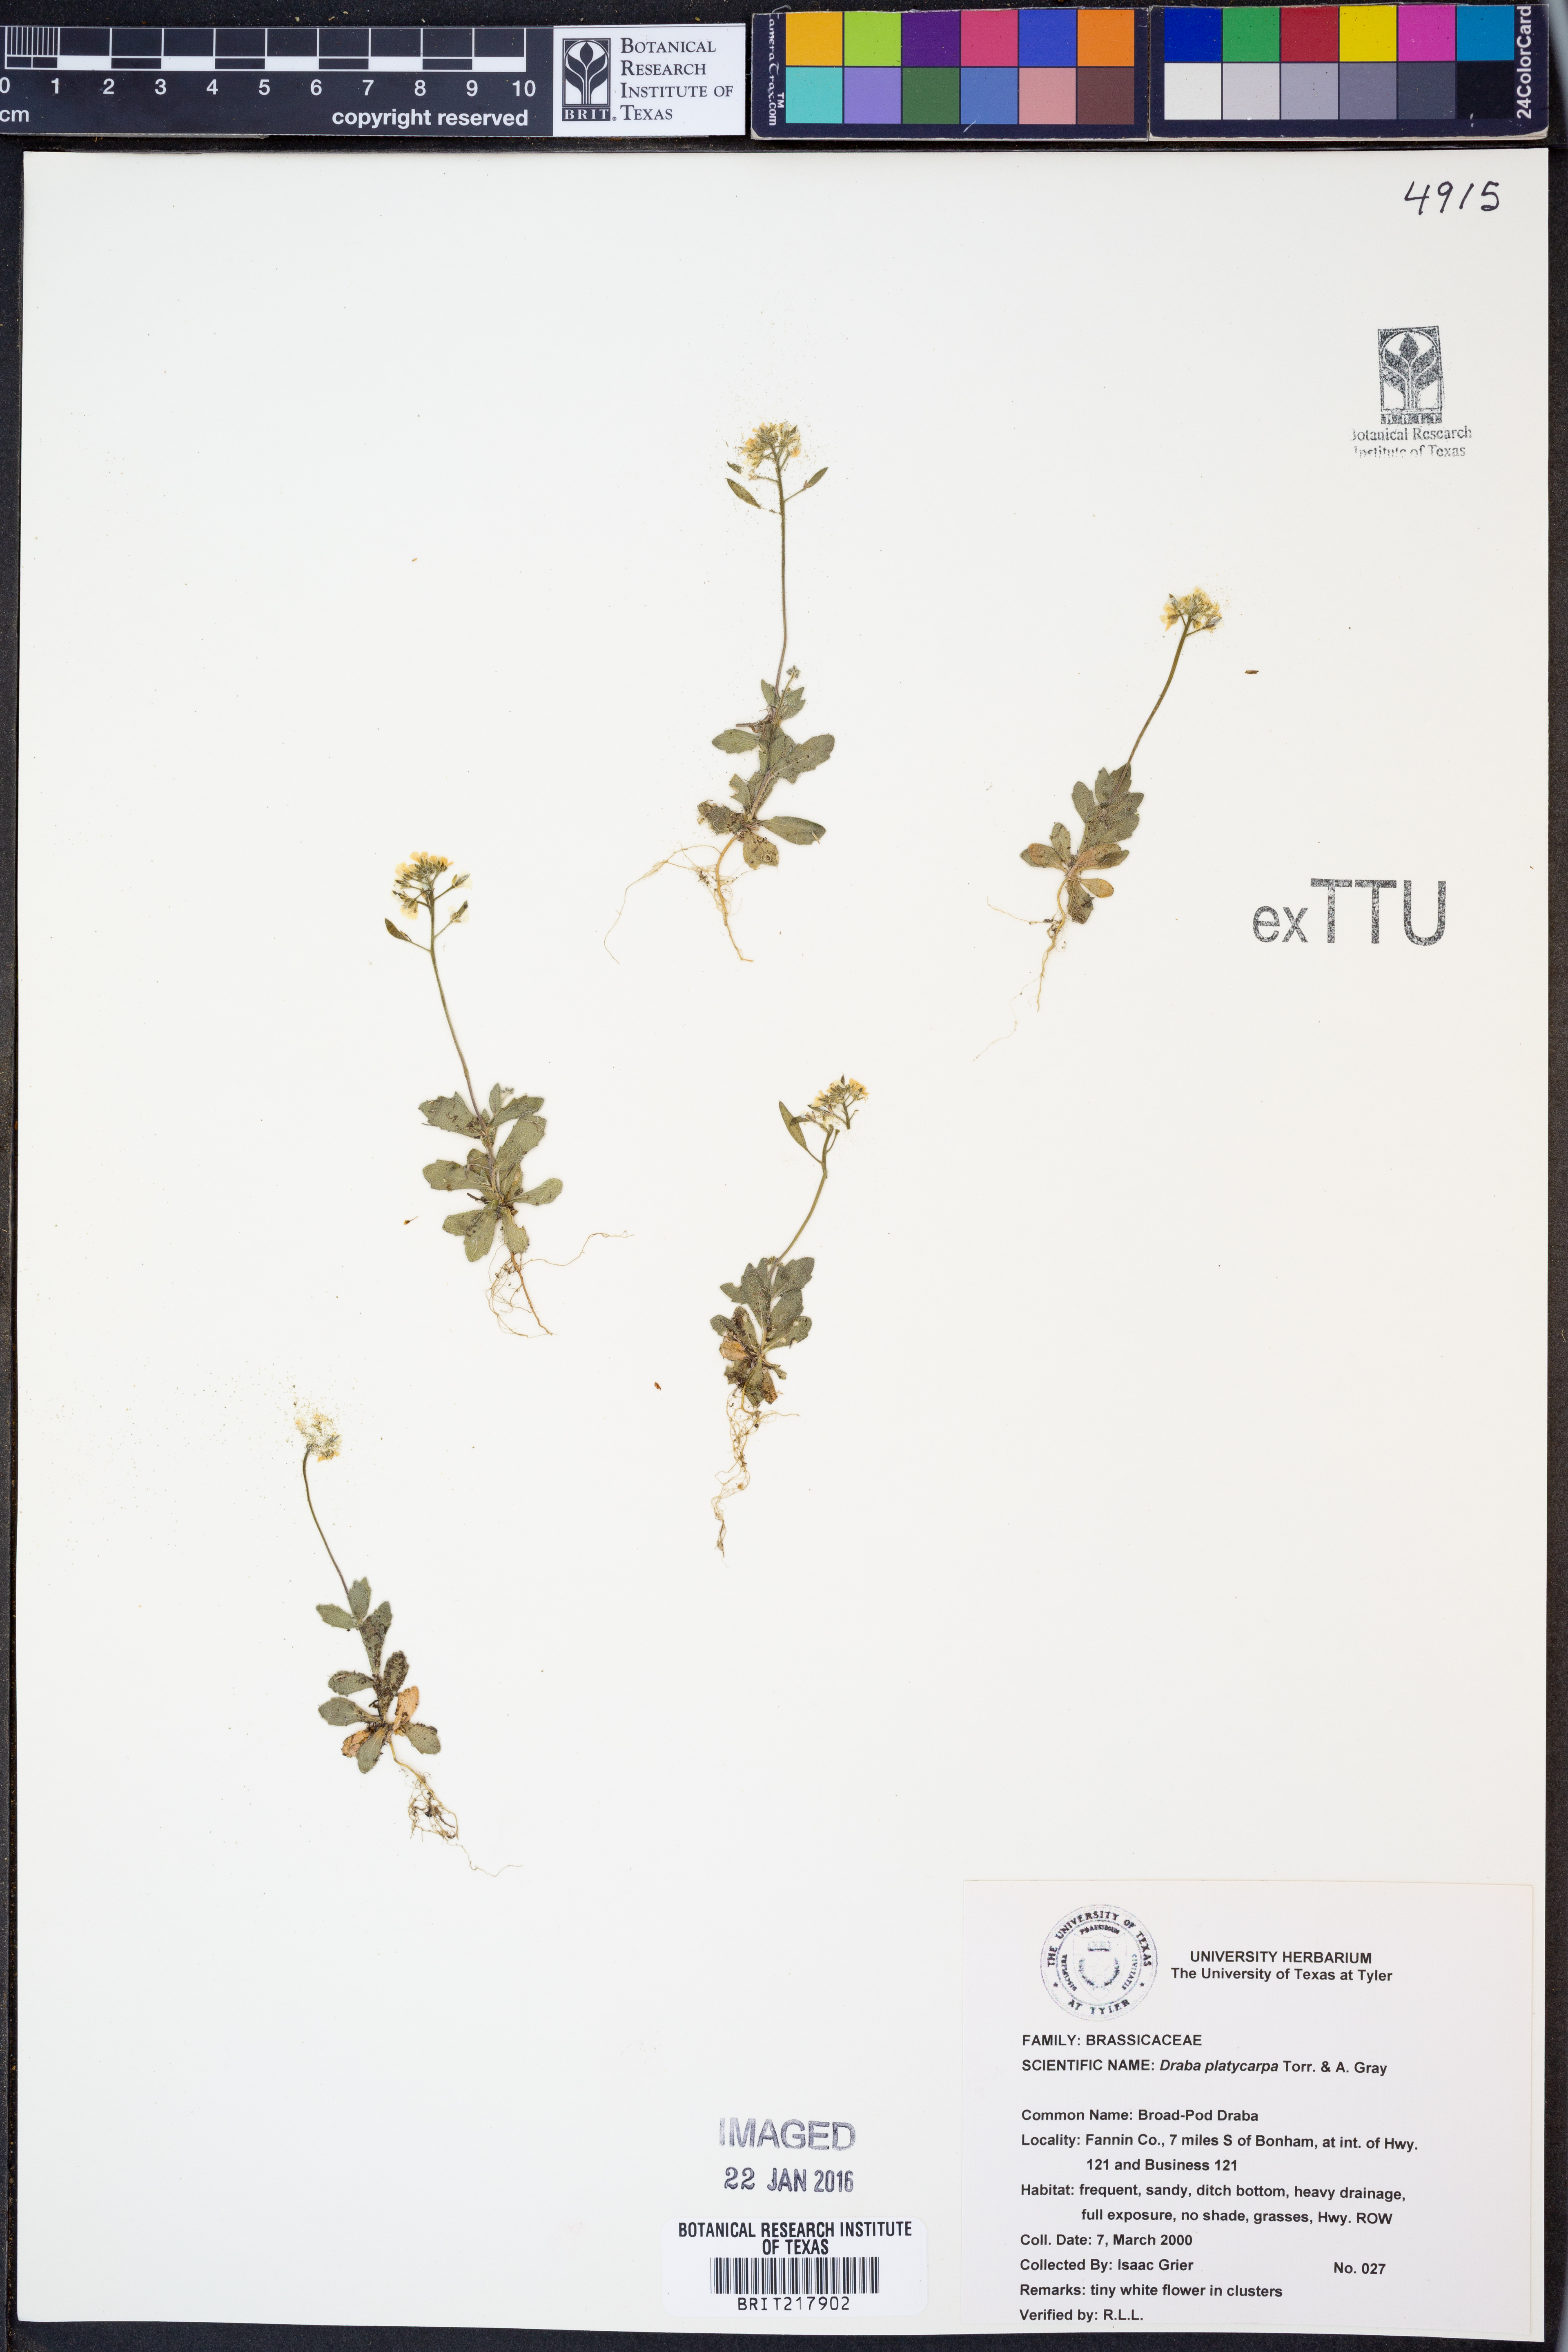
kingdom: Plantae
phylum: Tracheophyta
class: Magnoliopsida
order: Brassicales
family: Brassicaceae
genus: Tomostima
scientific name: Tomostima platycarpa
